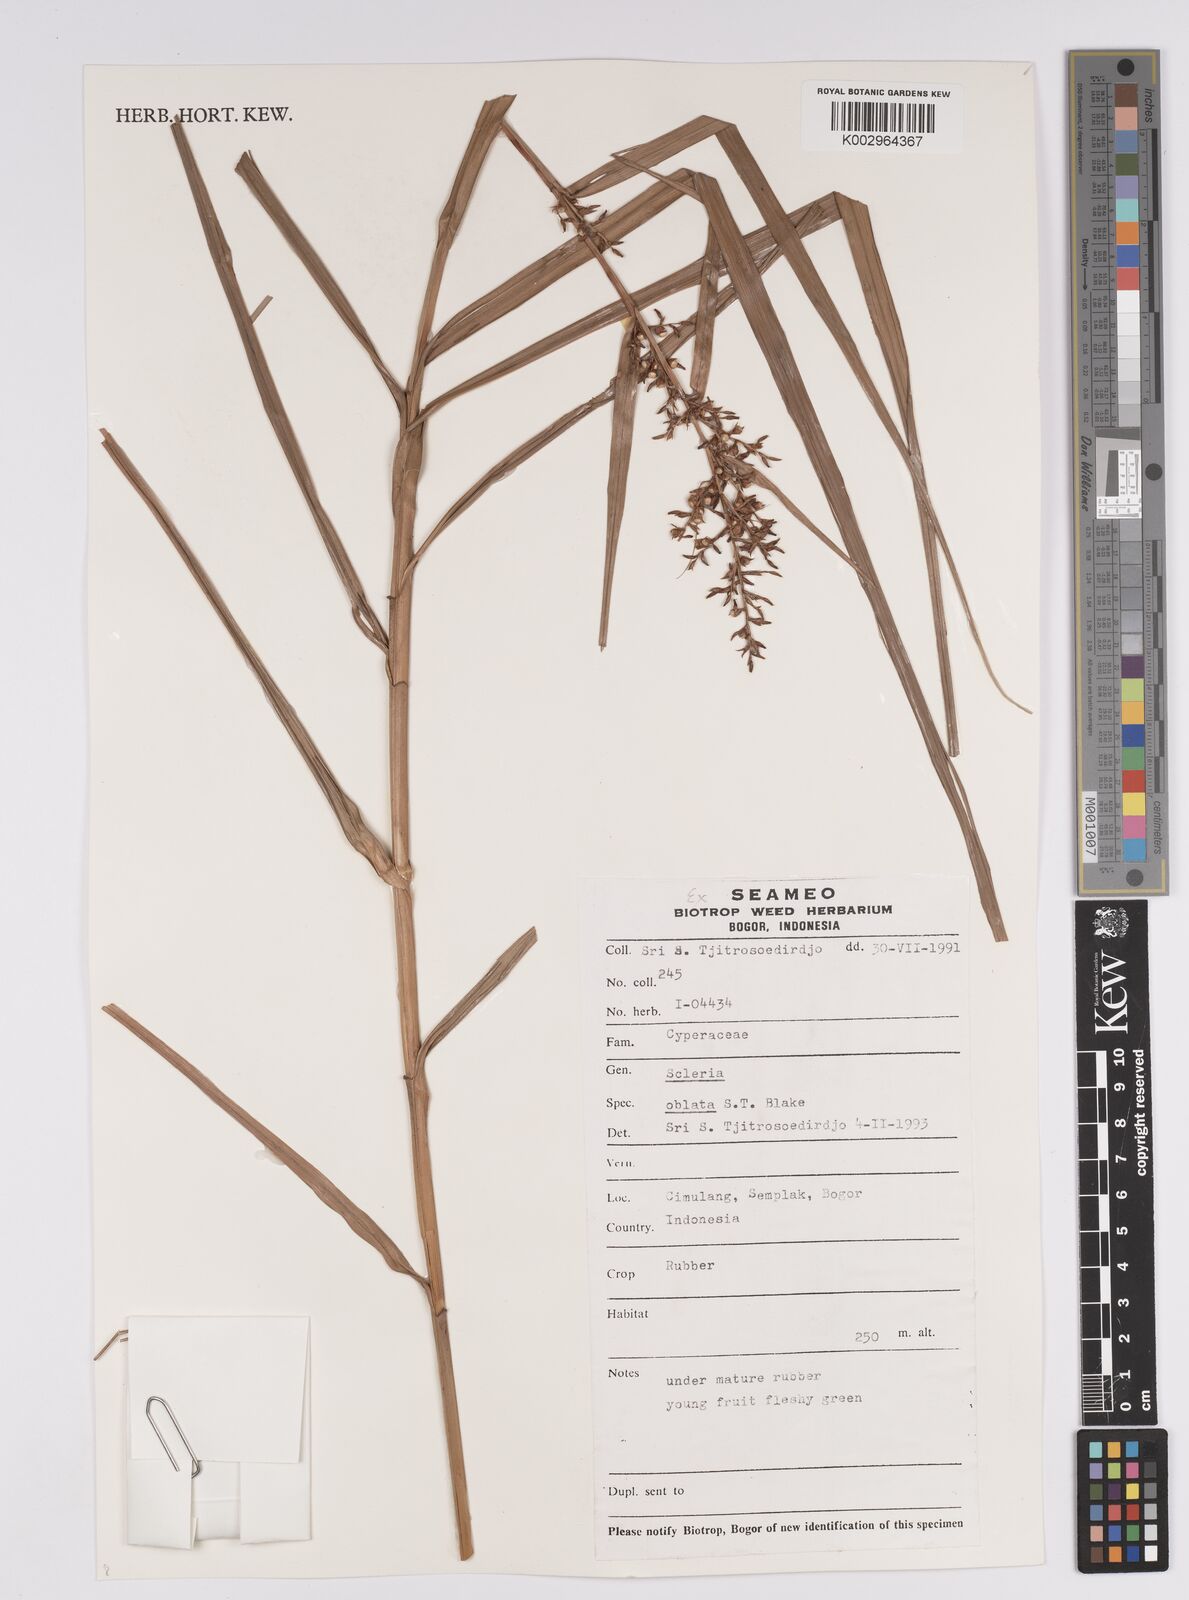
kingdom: Plantae
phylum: Tracheophyta
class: Liliopsida
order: Poales
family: Cyperaceae
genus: Scleria
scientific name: Scleria oblata
